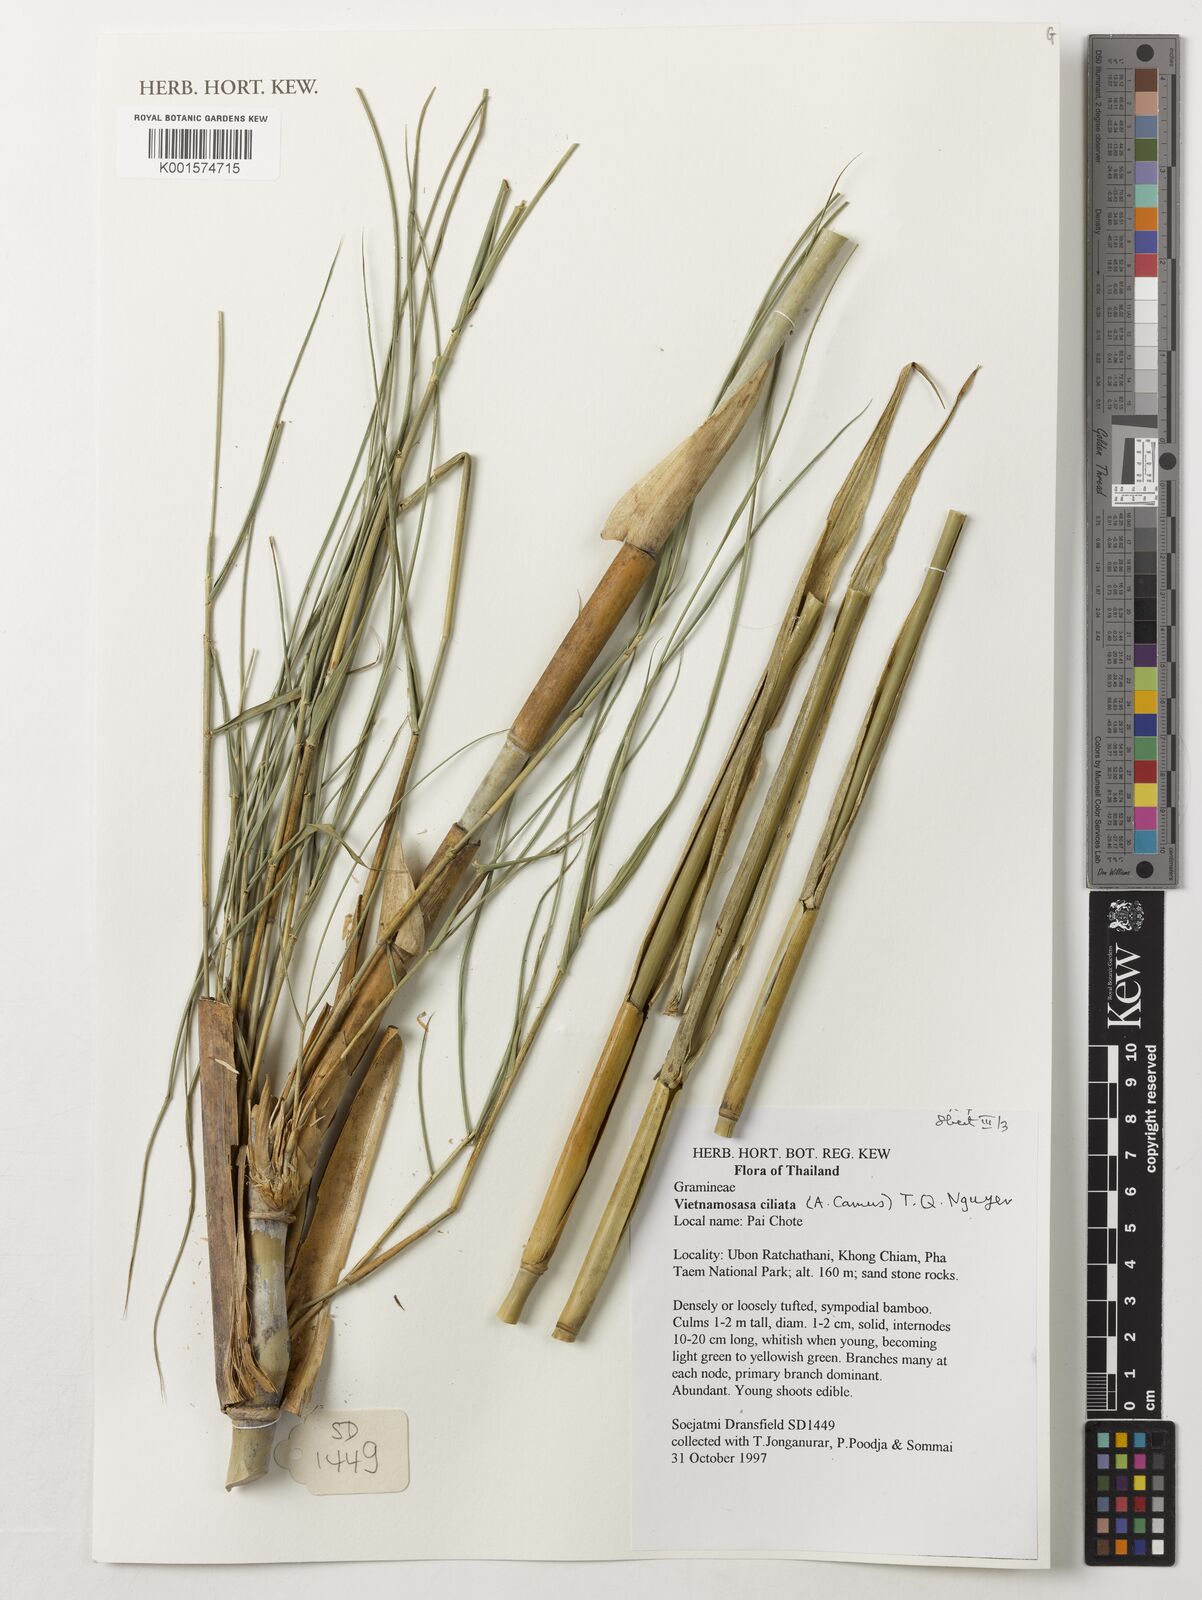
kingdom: Plantae
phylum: Tracheophyta
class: Liliopsida
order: Poales
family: Poaceae
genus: Vietnamosasa
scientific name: Vietnamosasa ciliata
